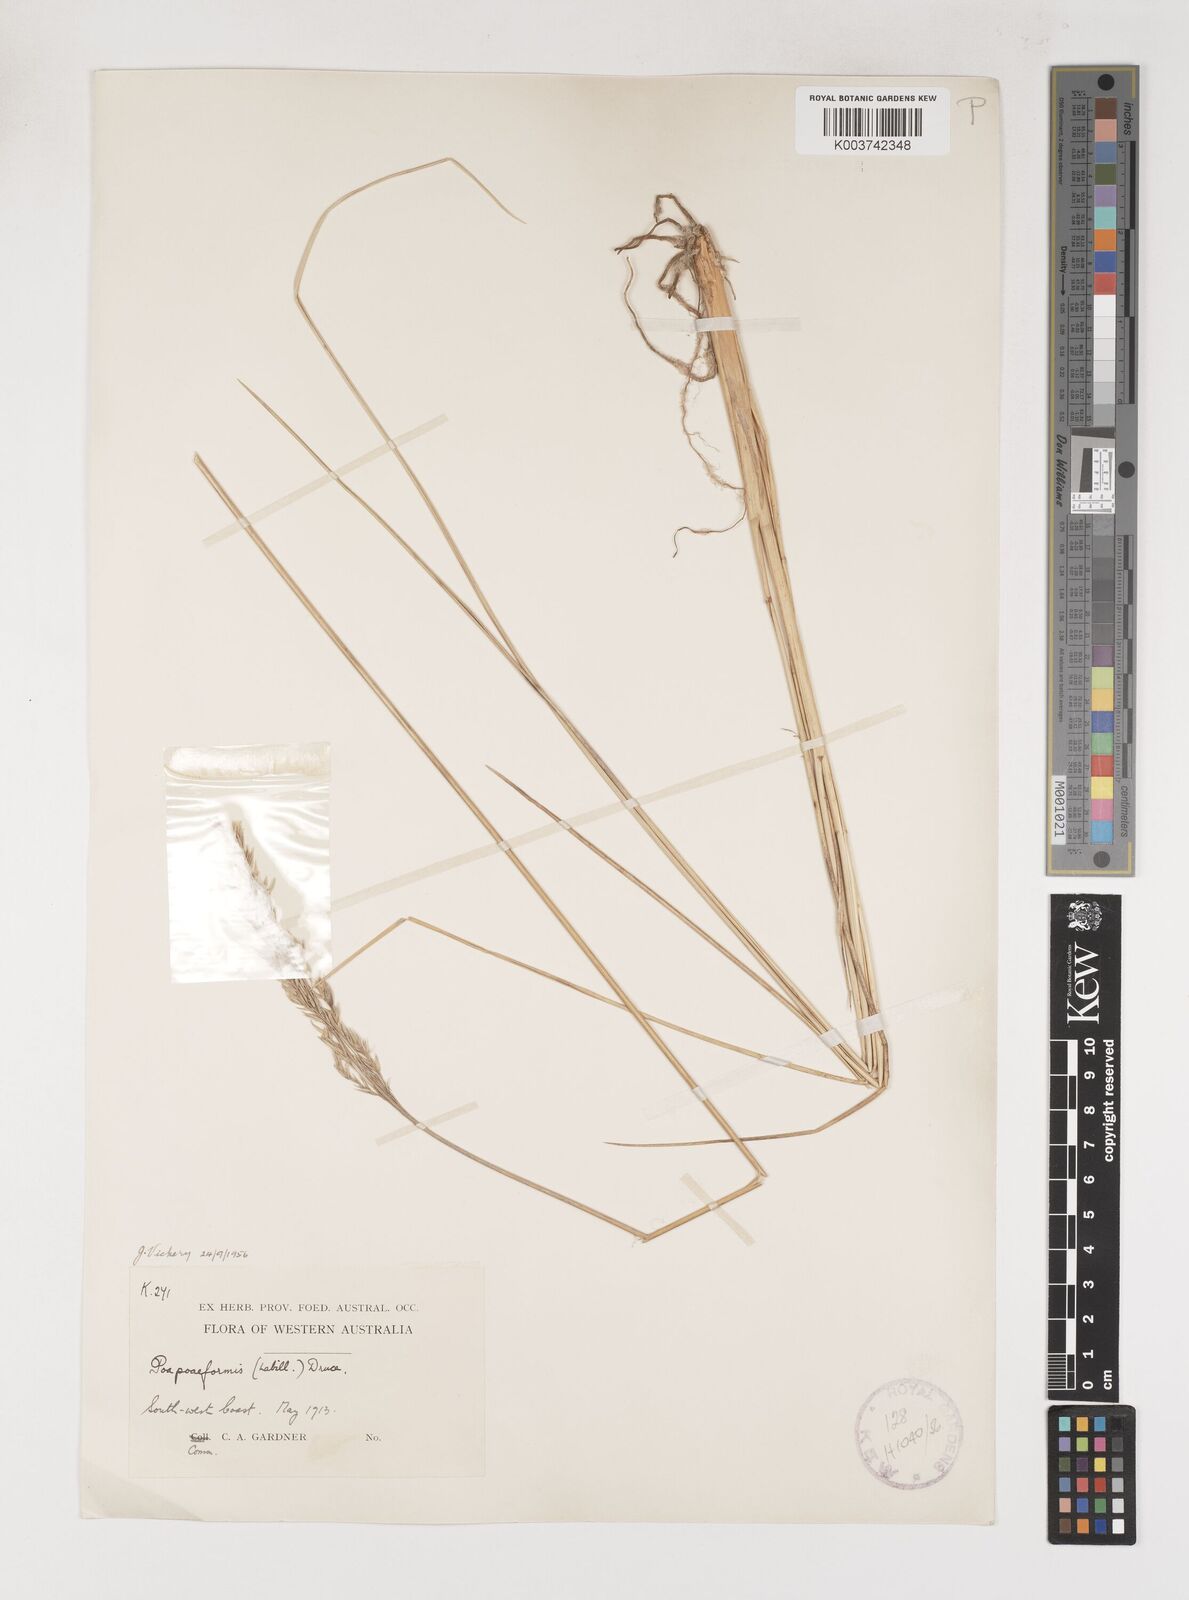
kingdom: Plantae
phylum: Tracheophyta
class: Liliopsida
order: Poales
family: Poaceae
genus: Poa
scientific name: Poa poiformis
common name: Tussock poa
